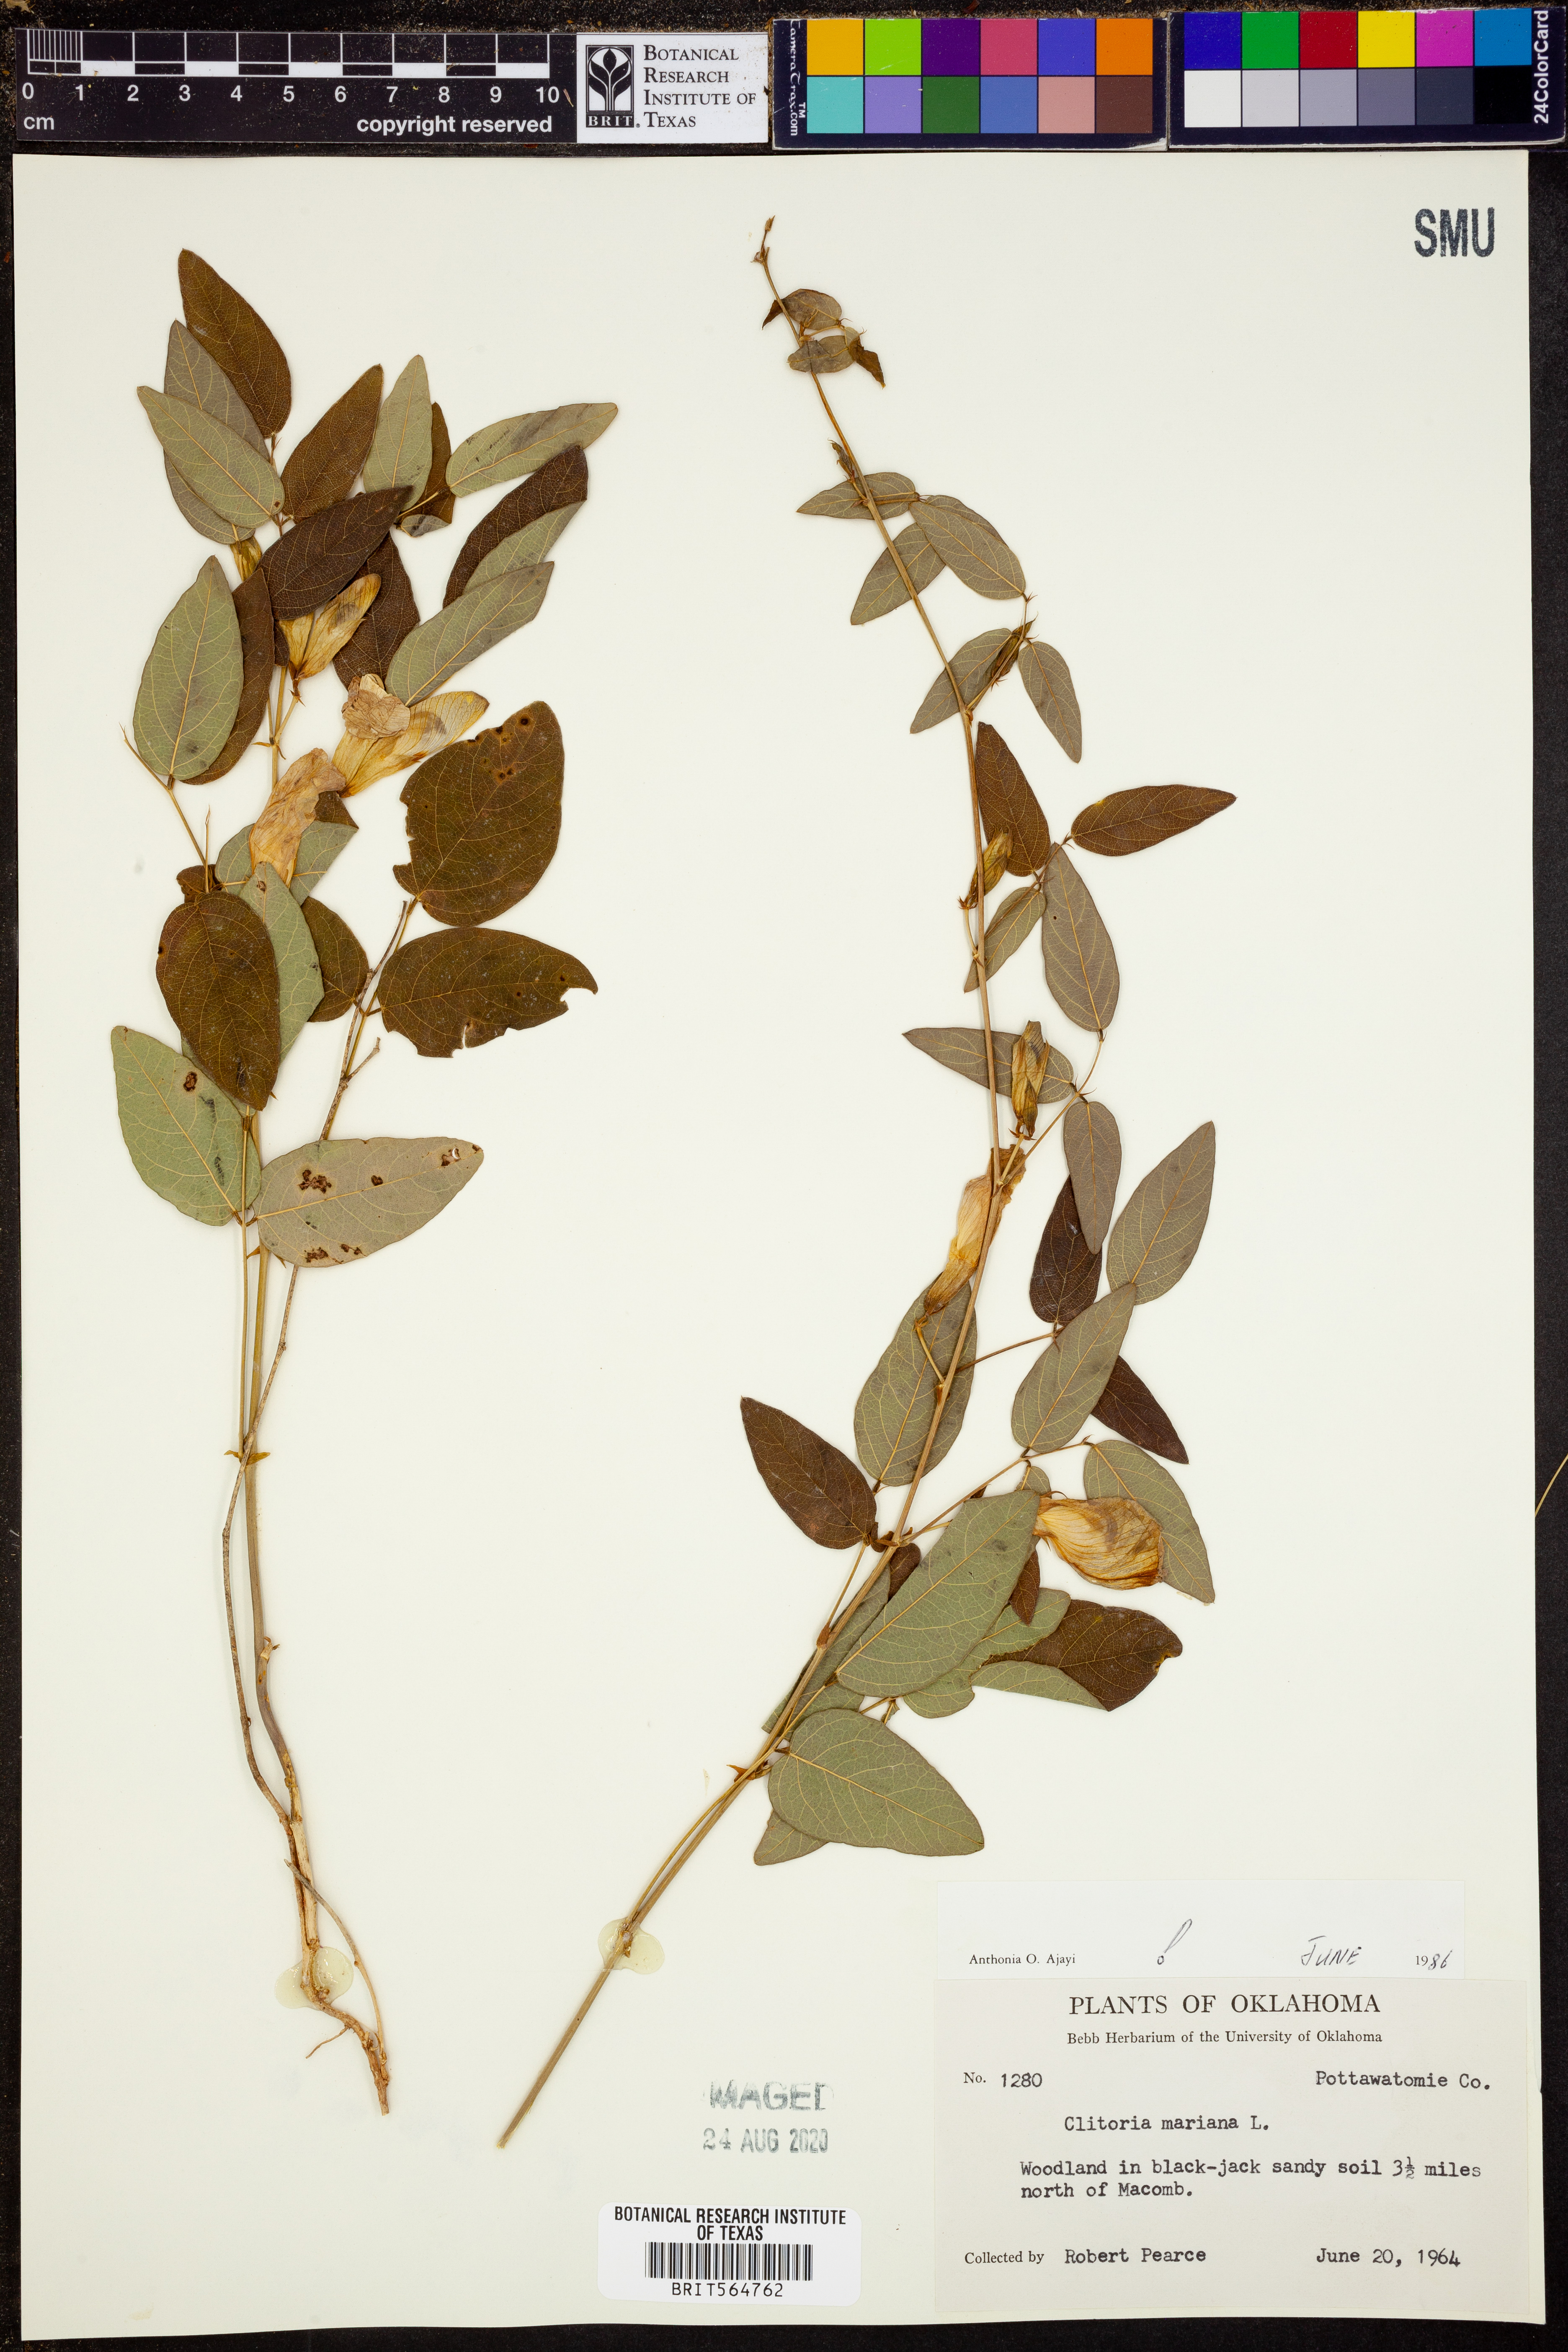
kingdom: Plantae
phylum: Tracheophyta
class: Magnoliopsida
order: Fabales
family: Fabaceae
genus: Clitoria
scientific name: Clitoria mariana
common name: Butterfly-pea
